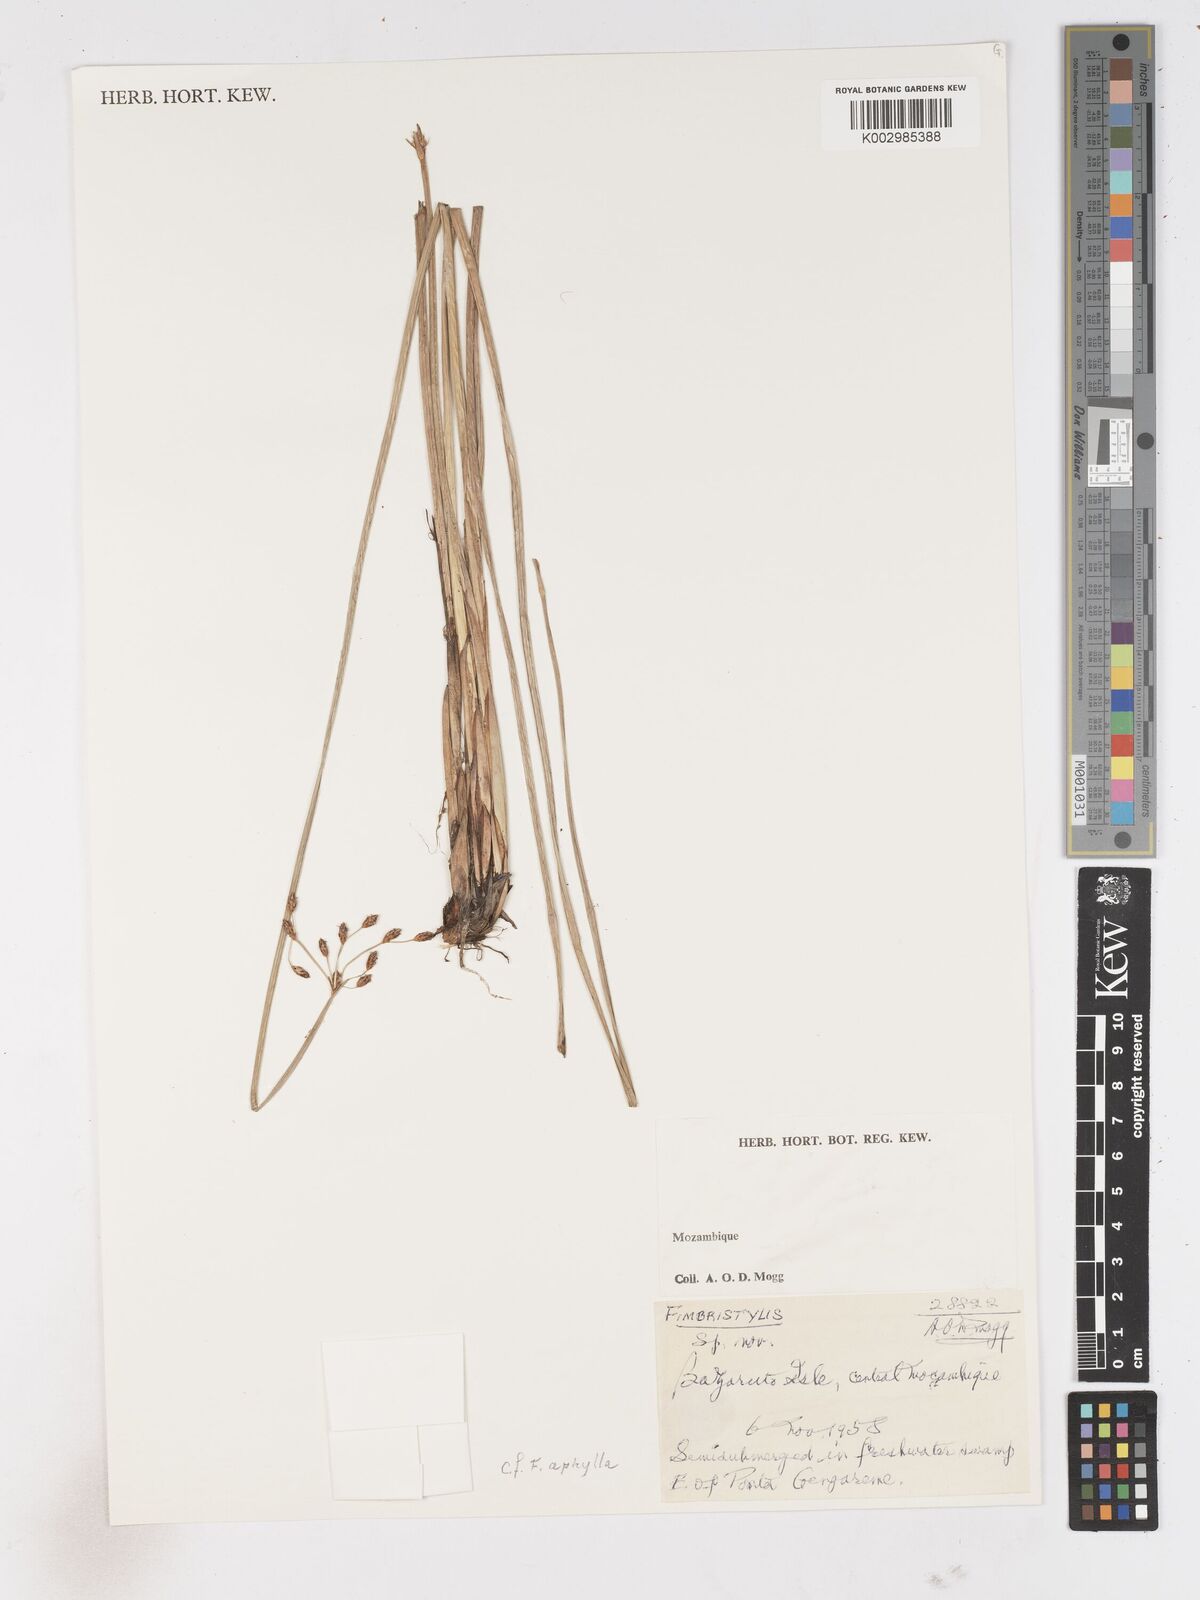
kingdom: Plantae
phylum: Tracheophyta
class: Liliopsida
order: Poales
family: Cyperaceae
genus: Arthrostylis
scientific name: Arthrostylis aphylla
